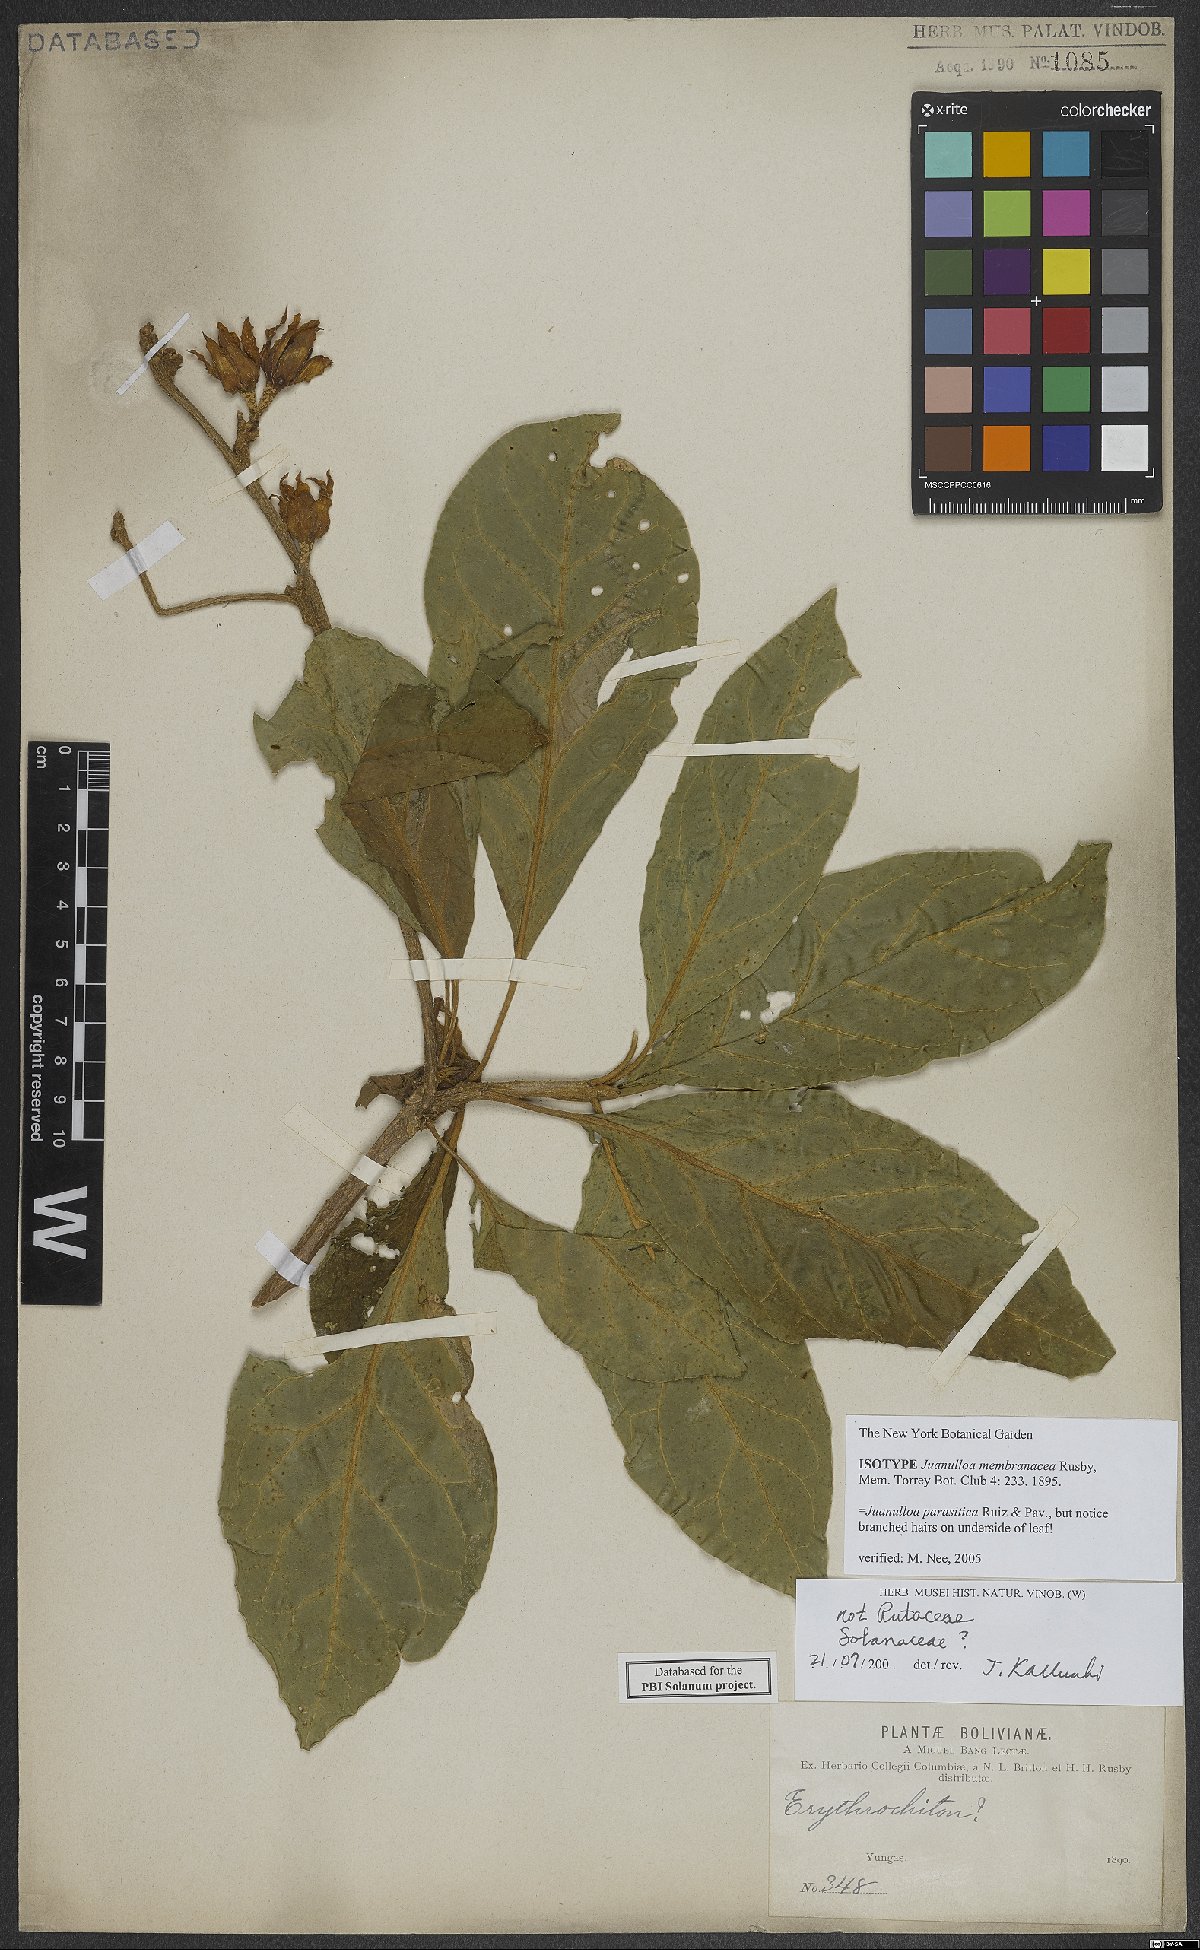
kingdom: Plantae
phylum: Tracheophyta
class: Magnoliopsida
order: Solanales
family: Solanaceae
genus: Juanulloa
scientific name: Juanulloa parasitica
